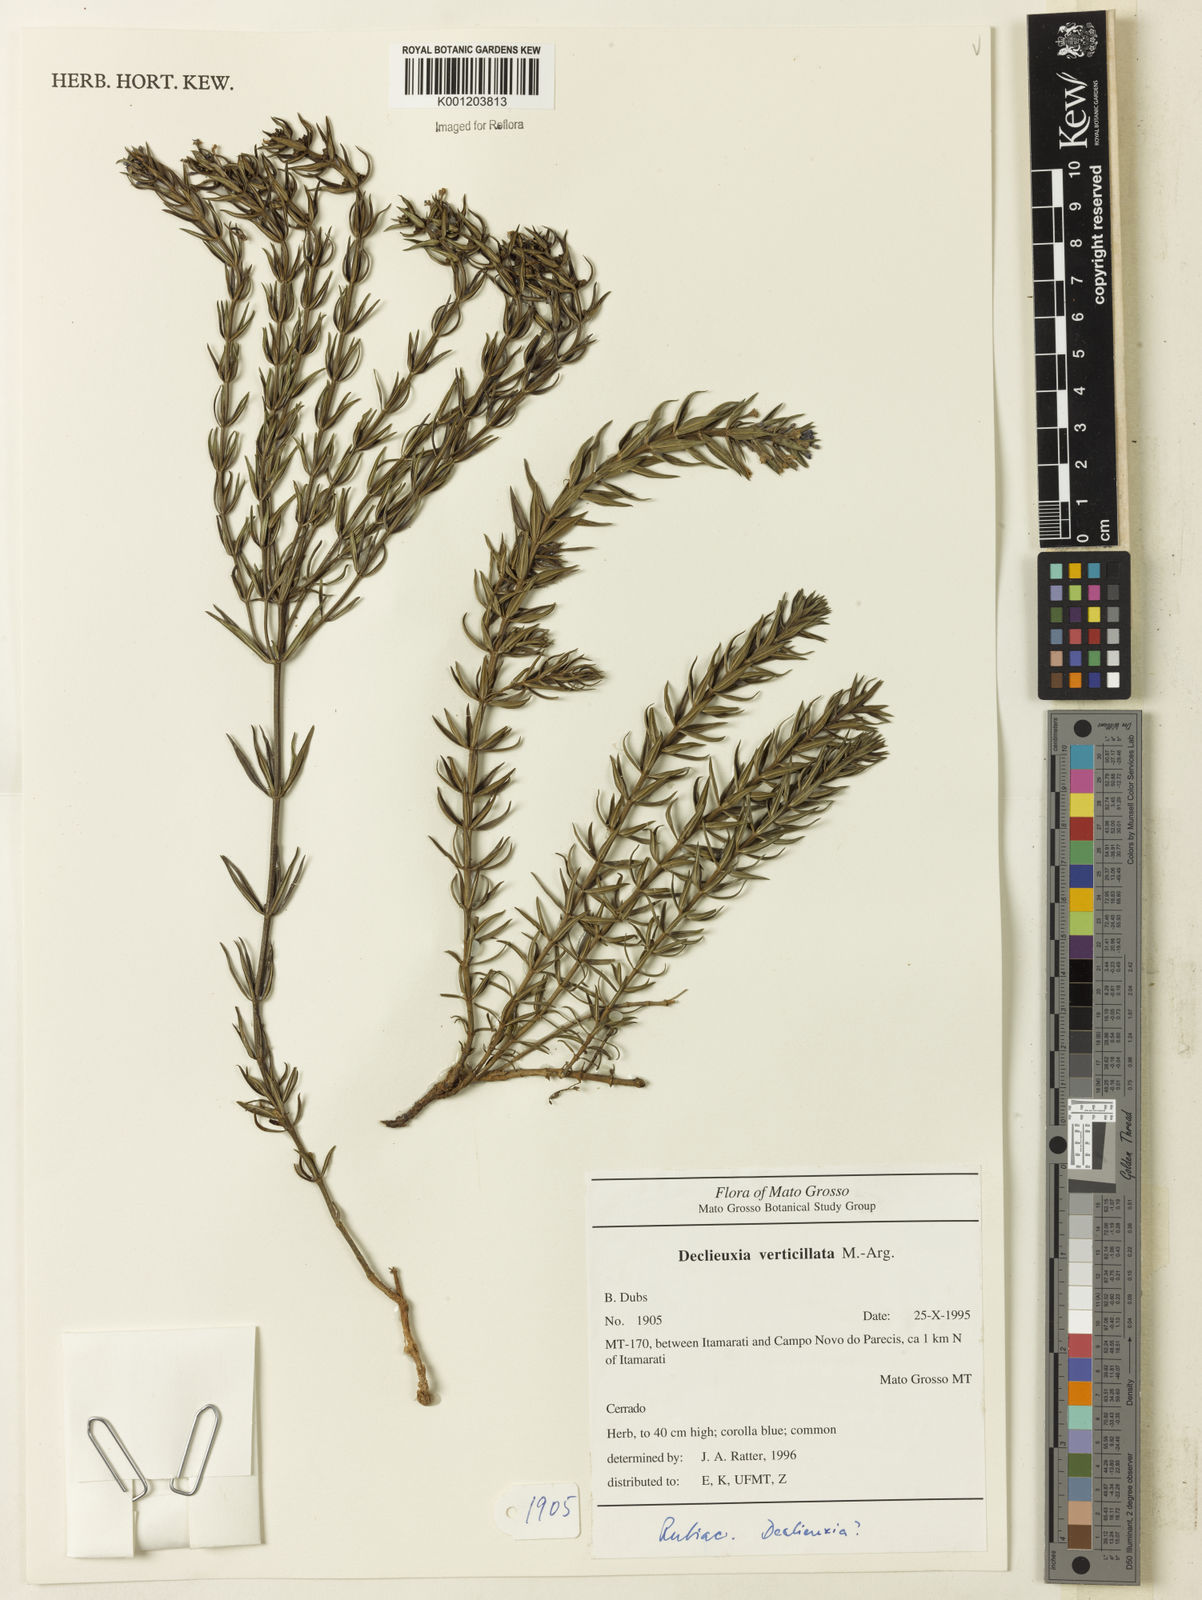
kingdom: Plantae
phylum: Tracheophyta
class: Magnoliopsida
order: Gentianales
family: Rubiaceae
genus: Declieuxia
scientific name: Declieuxia
